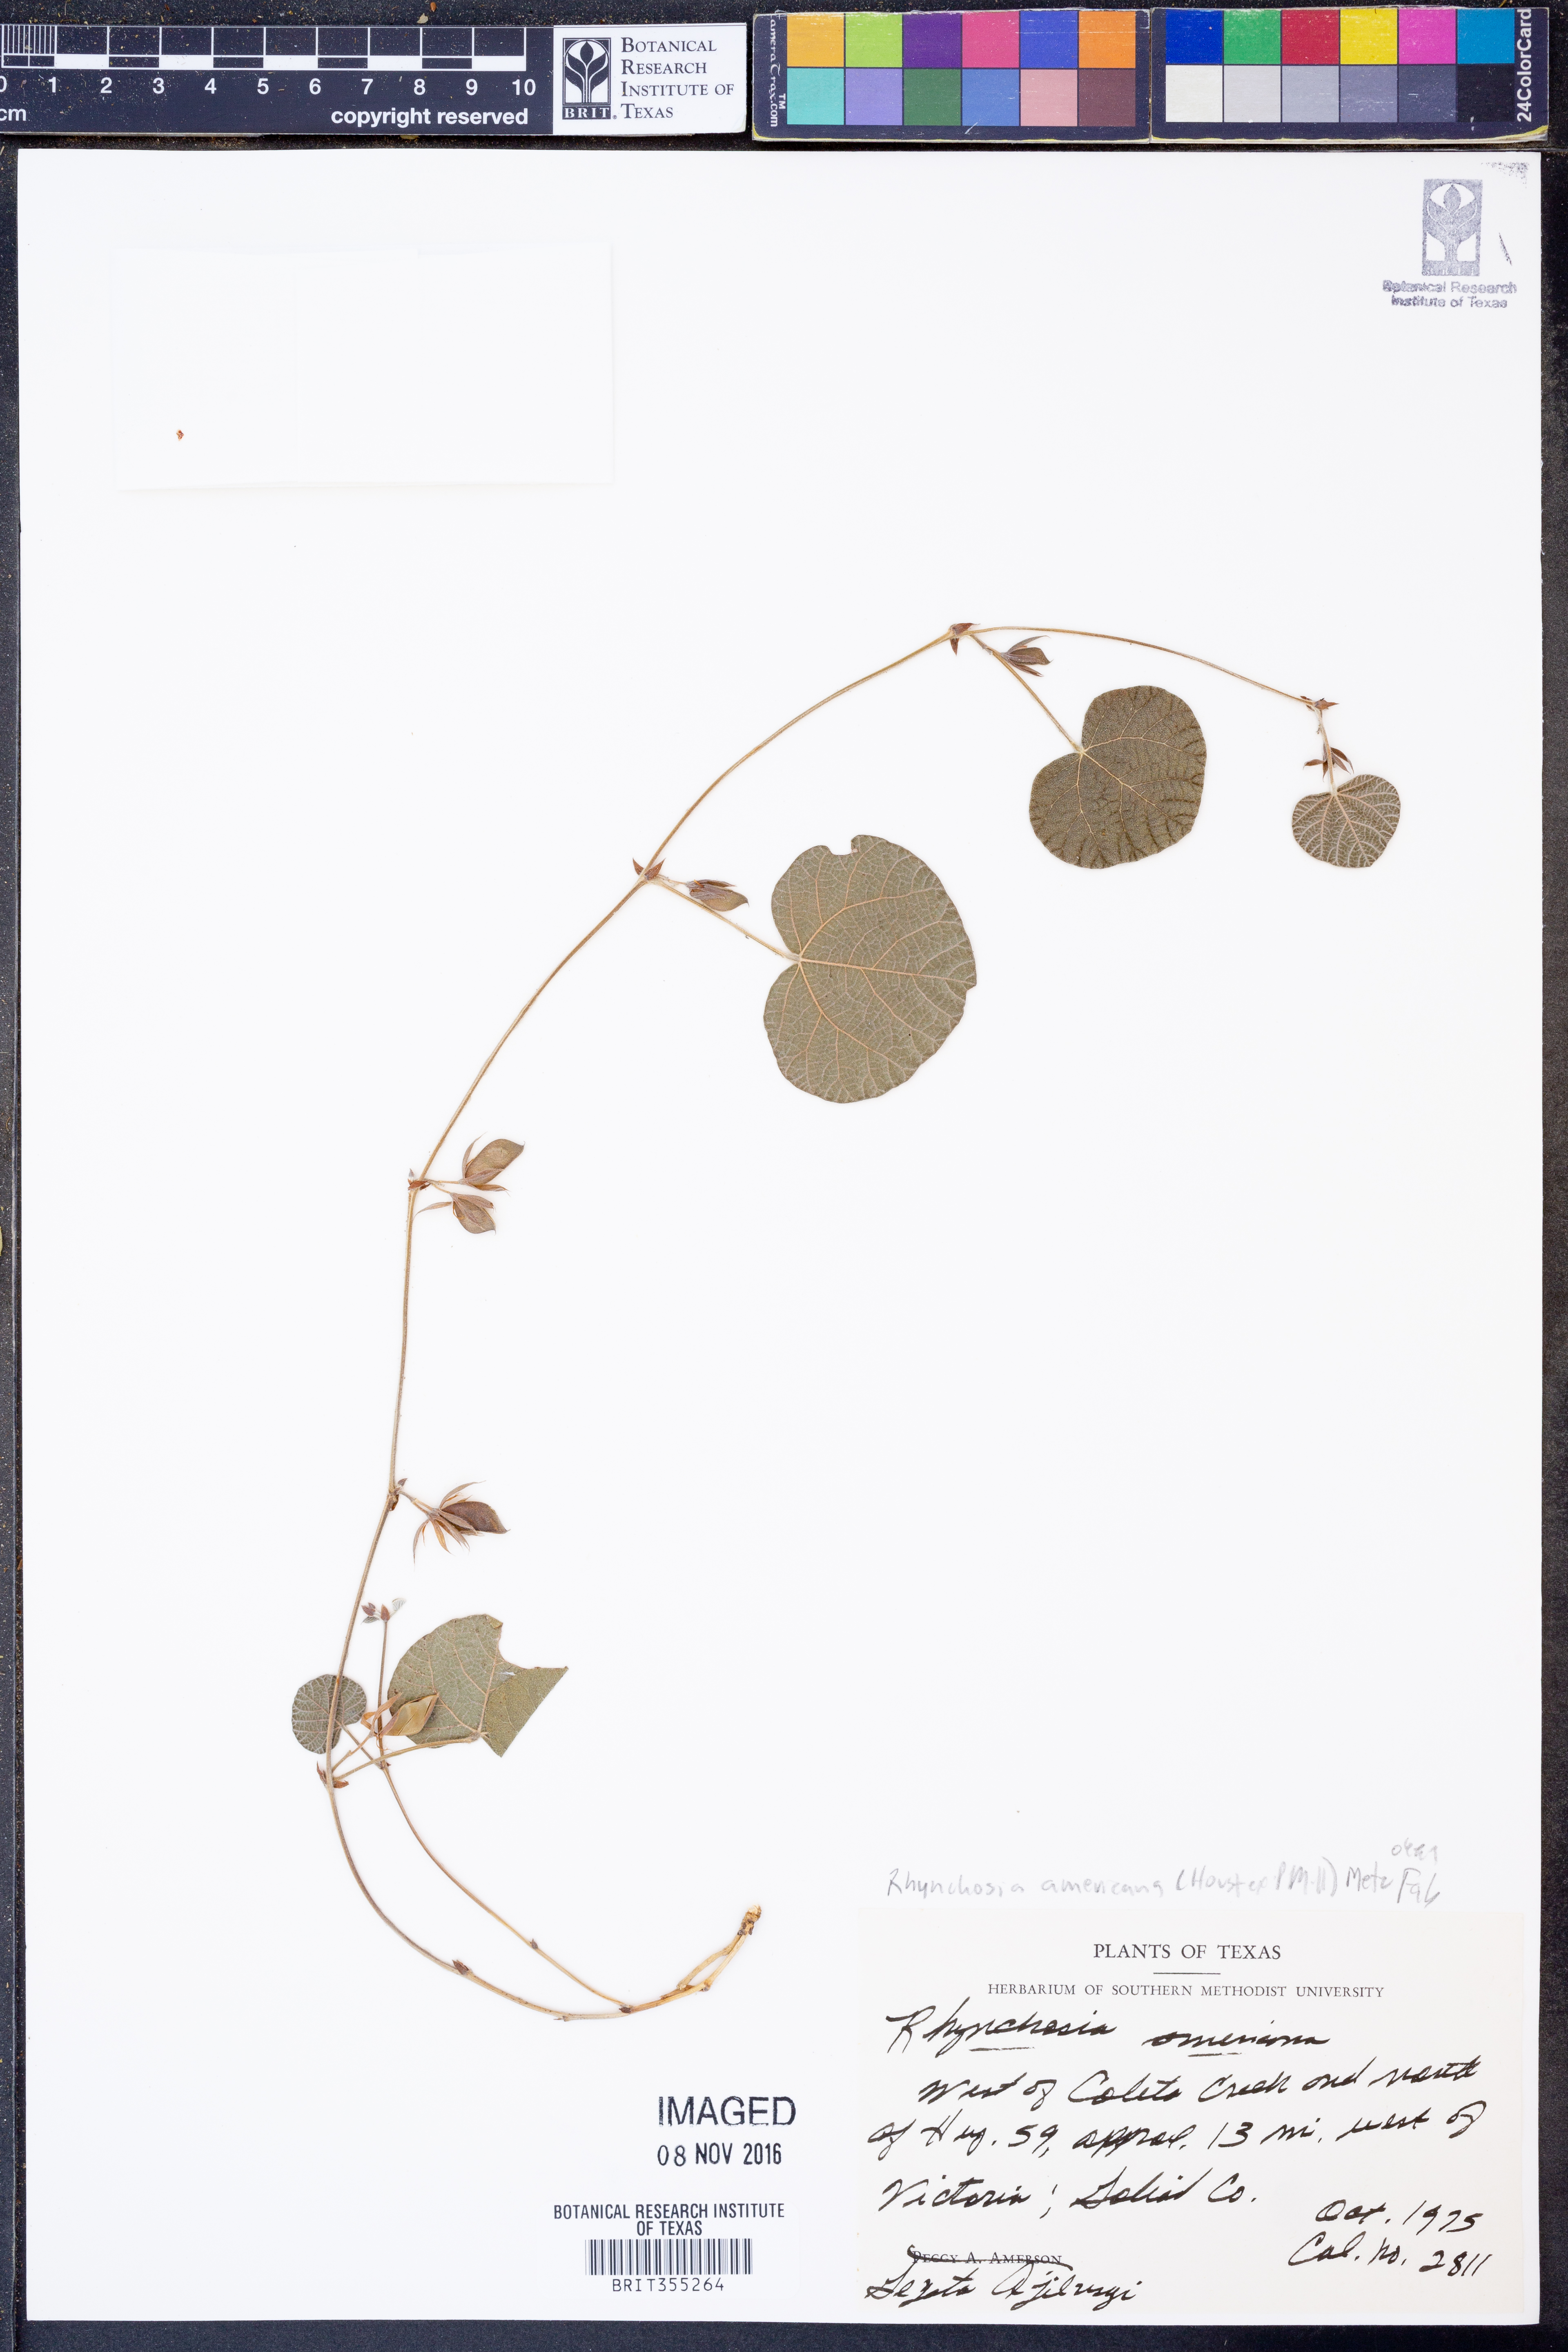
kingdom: Plantae
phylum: Tracheophyta
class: Magnoliopsida
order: Fabales
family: Fabaceae
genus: Rhynchosia
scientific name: Rhynchosia americana
